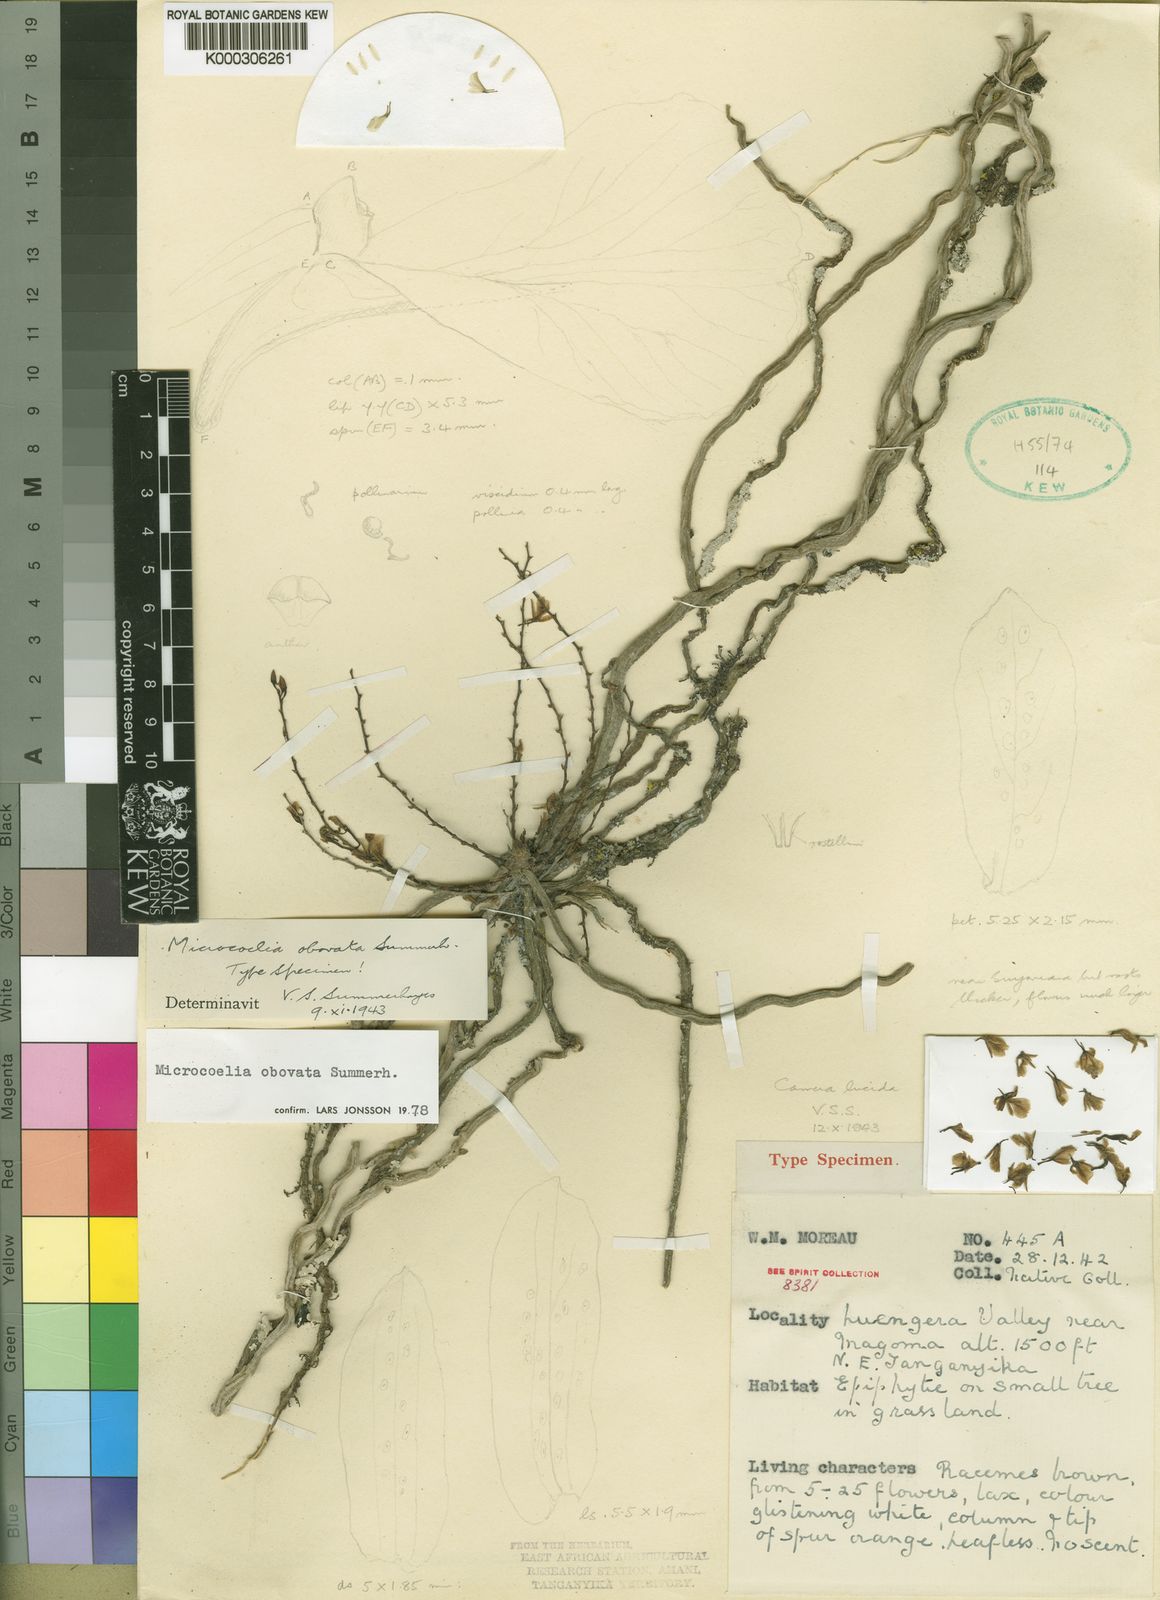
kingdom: Plantae
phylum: Tracheophyta
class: Liliopsida
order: Asparagales
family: Orchidaceae
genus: Microcoelia
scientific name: Microcoelia obovata
